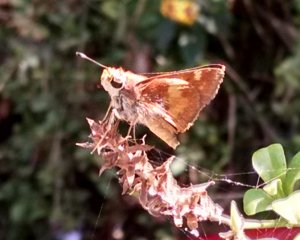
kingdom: Animalia
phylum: Arthropoda
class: Insecta
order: Lepidoptera
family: Hesperiidae
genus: Lon
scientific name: Lon melane
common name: Umber Skipper
